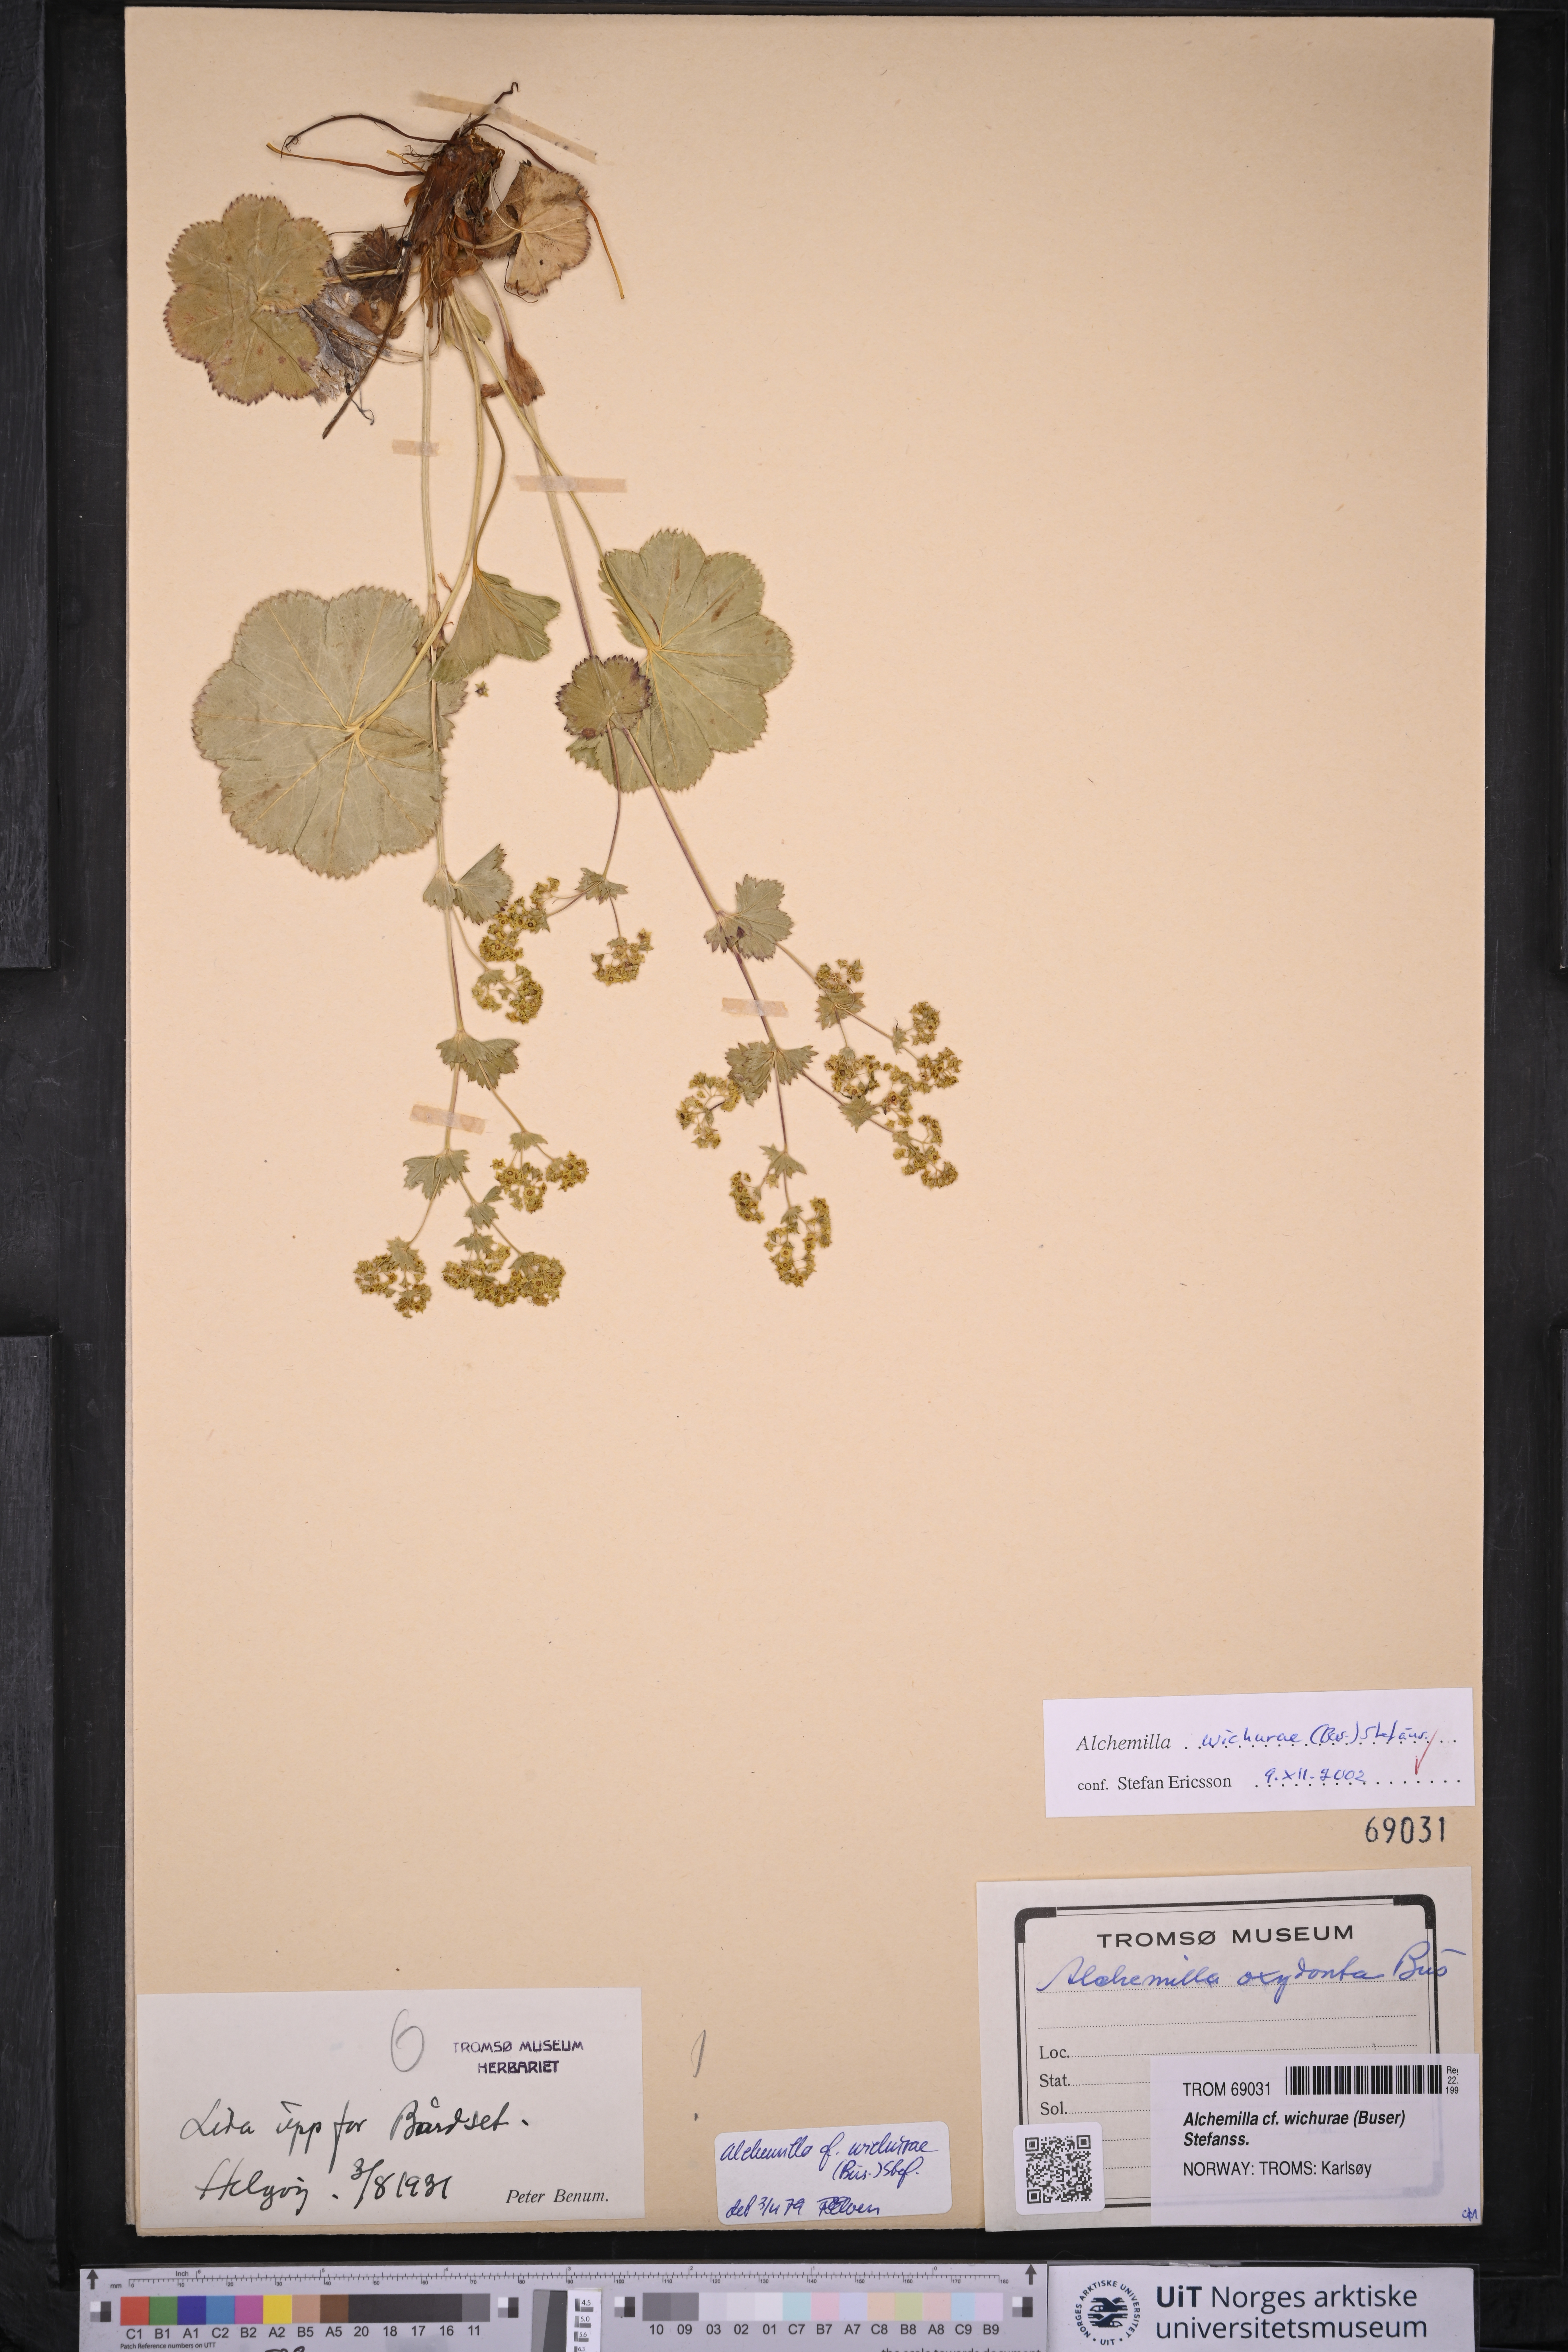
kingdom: Plantae
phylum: Tracheophyta
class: Magnoliopsida
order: Rosales
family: Rosaceae
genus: Alchemilla
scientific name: Alchemilla wichurae
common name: Rock lady's mantle
